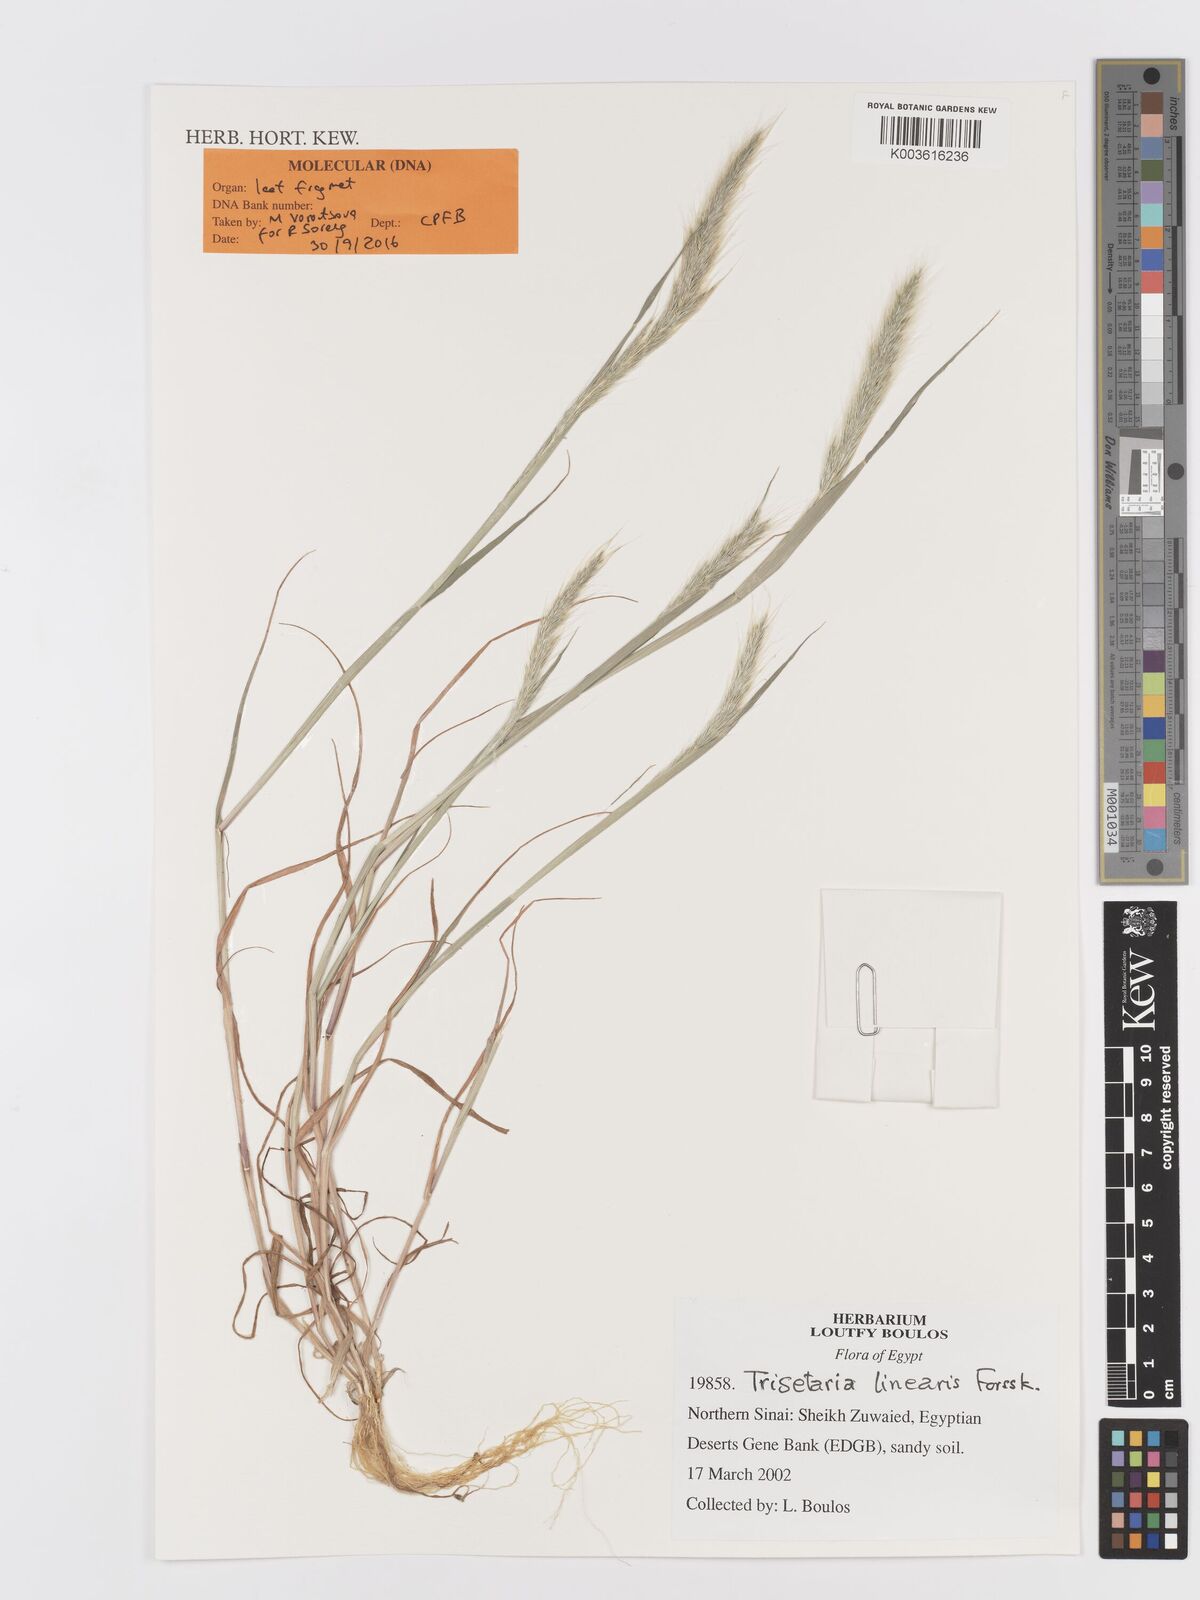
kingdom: Plantae
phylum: Tracheophyta
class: Liliopsida
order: Poales
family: Poaceae
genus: Trisetaria
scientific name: Trisetaria linearis
